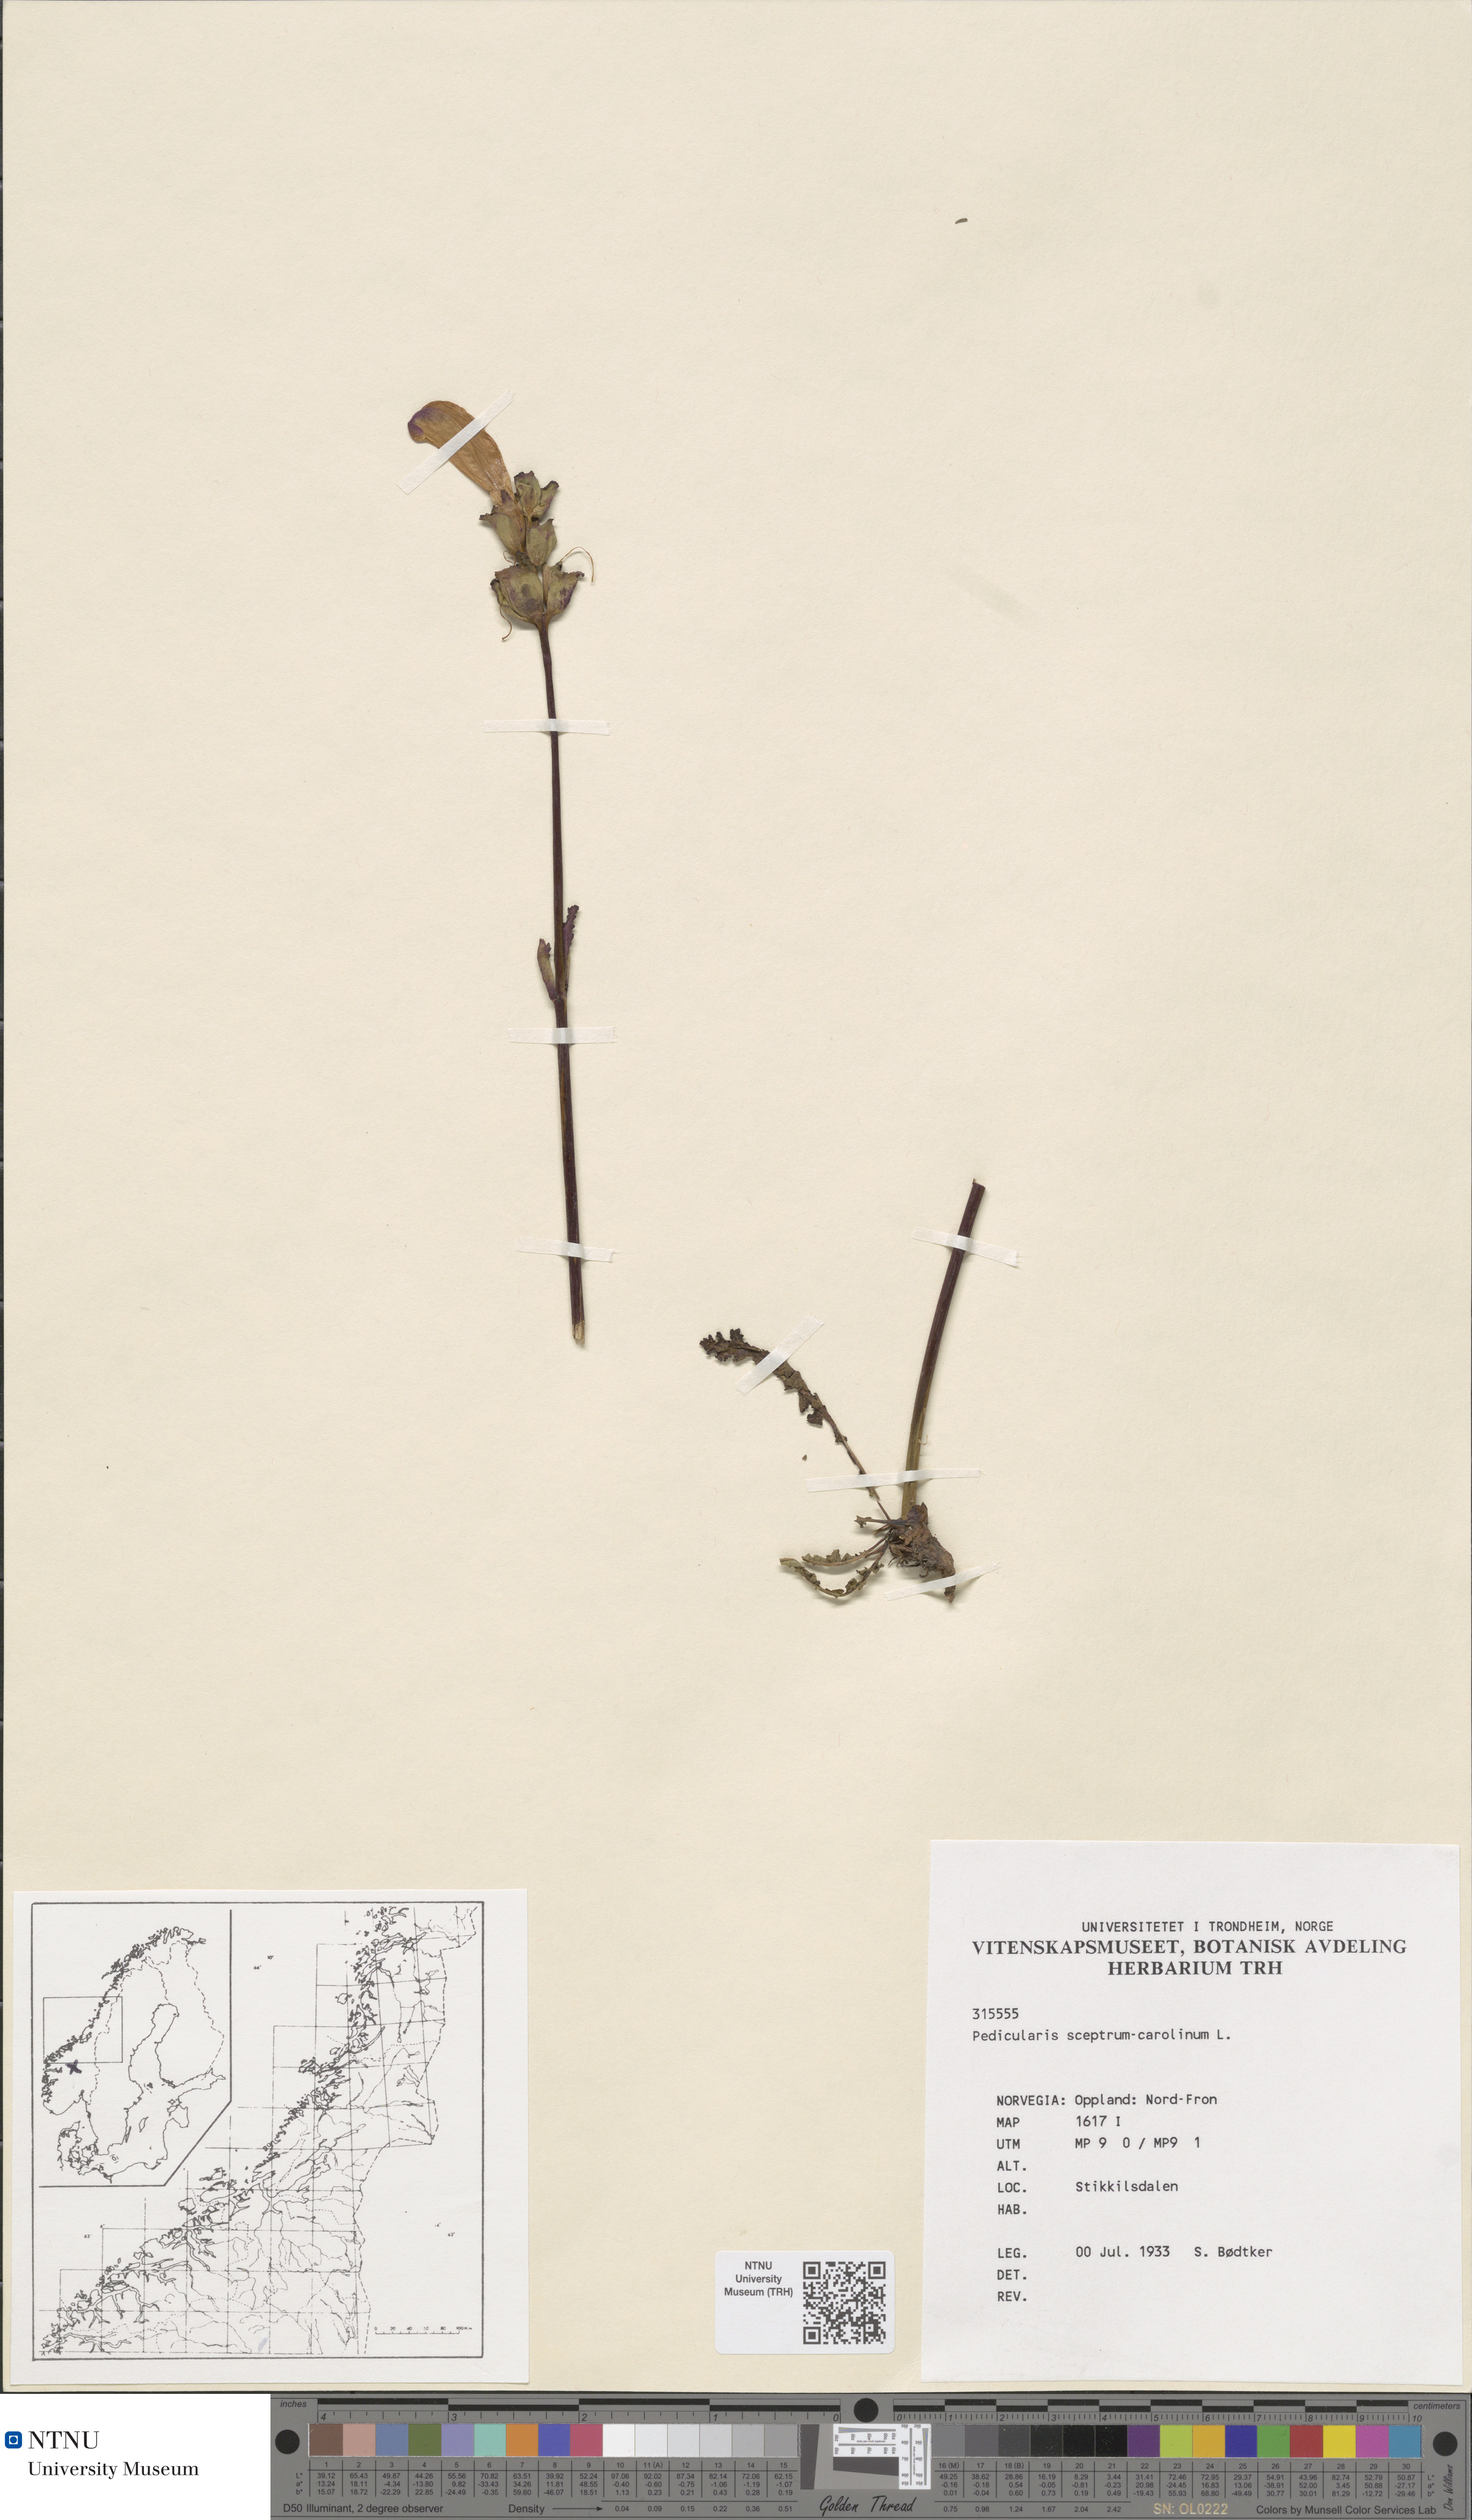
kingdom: Plantae
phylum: Tracheophyta
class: Magnoliopsida
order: Lamiales
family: Orobanchaceae
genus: Pedicularis
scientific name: Pedicularis sceptrum-carolinum
